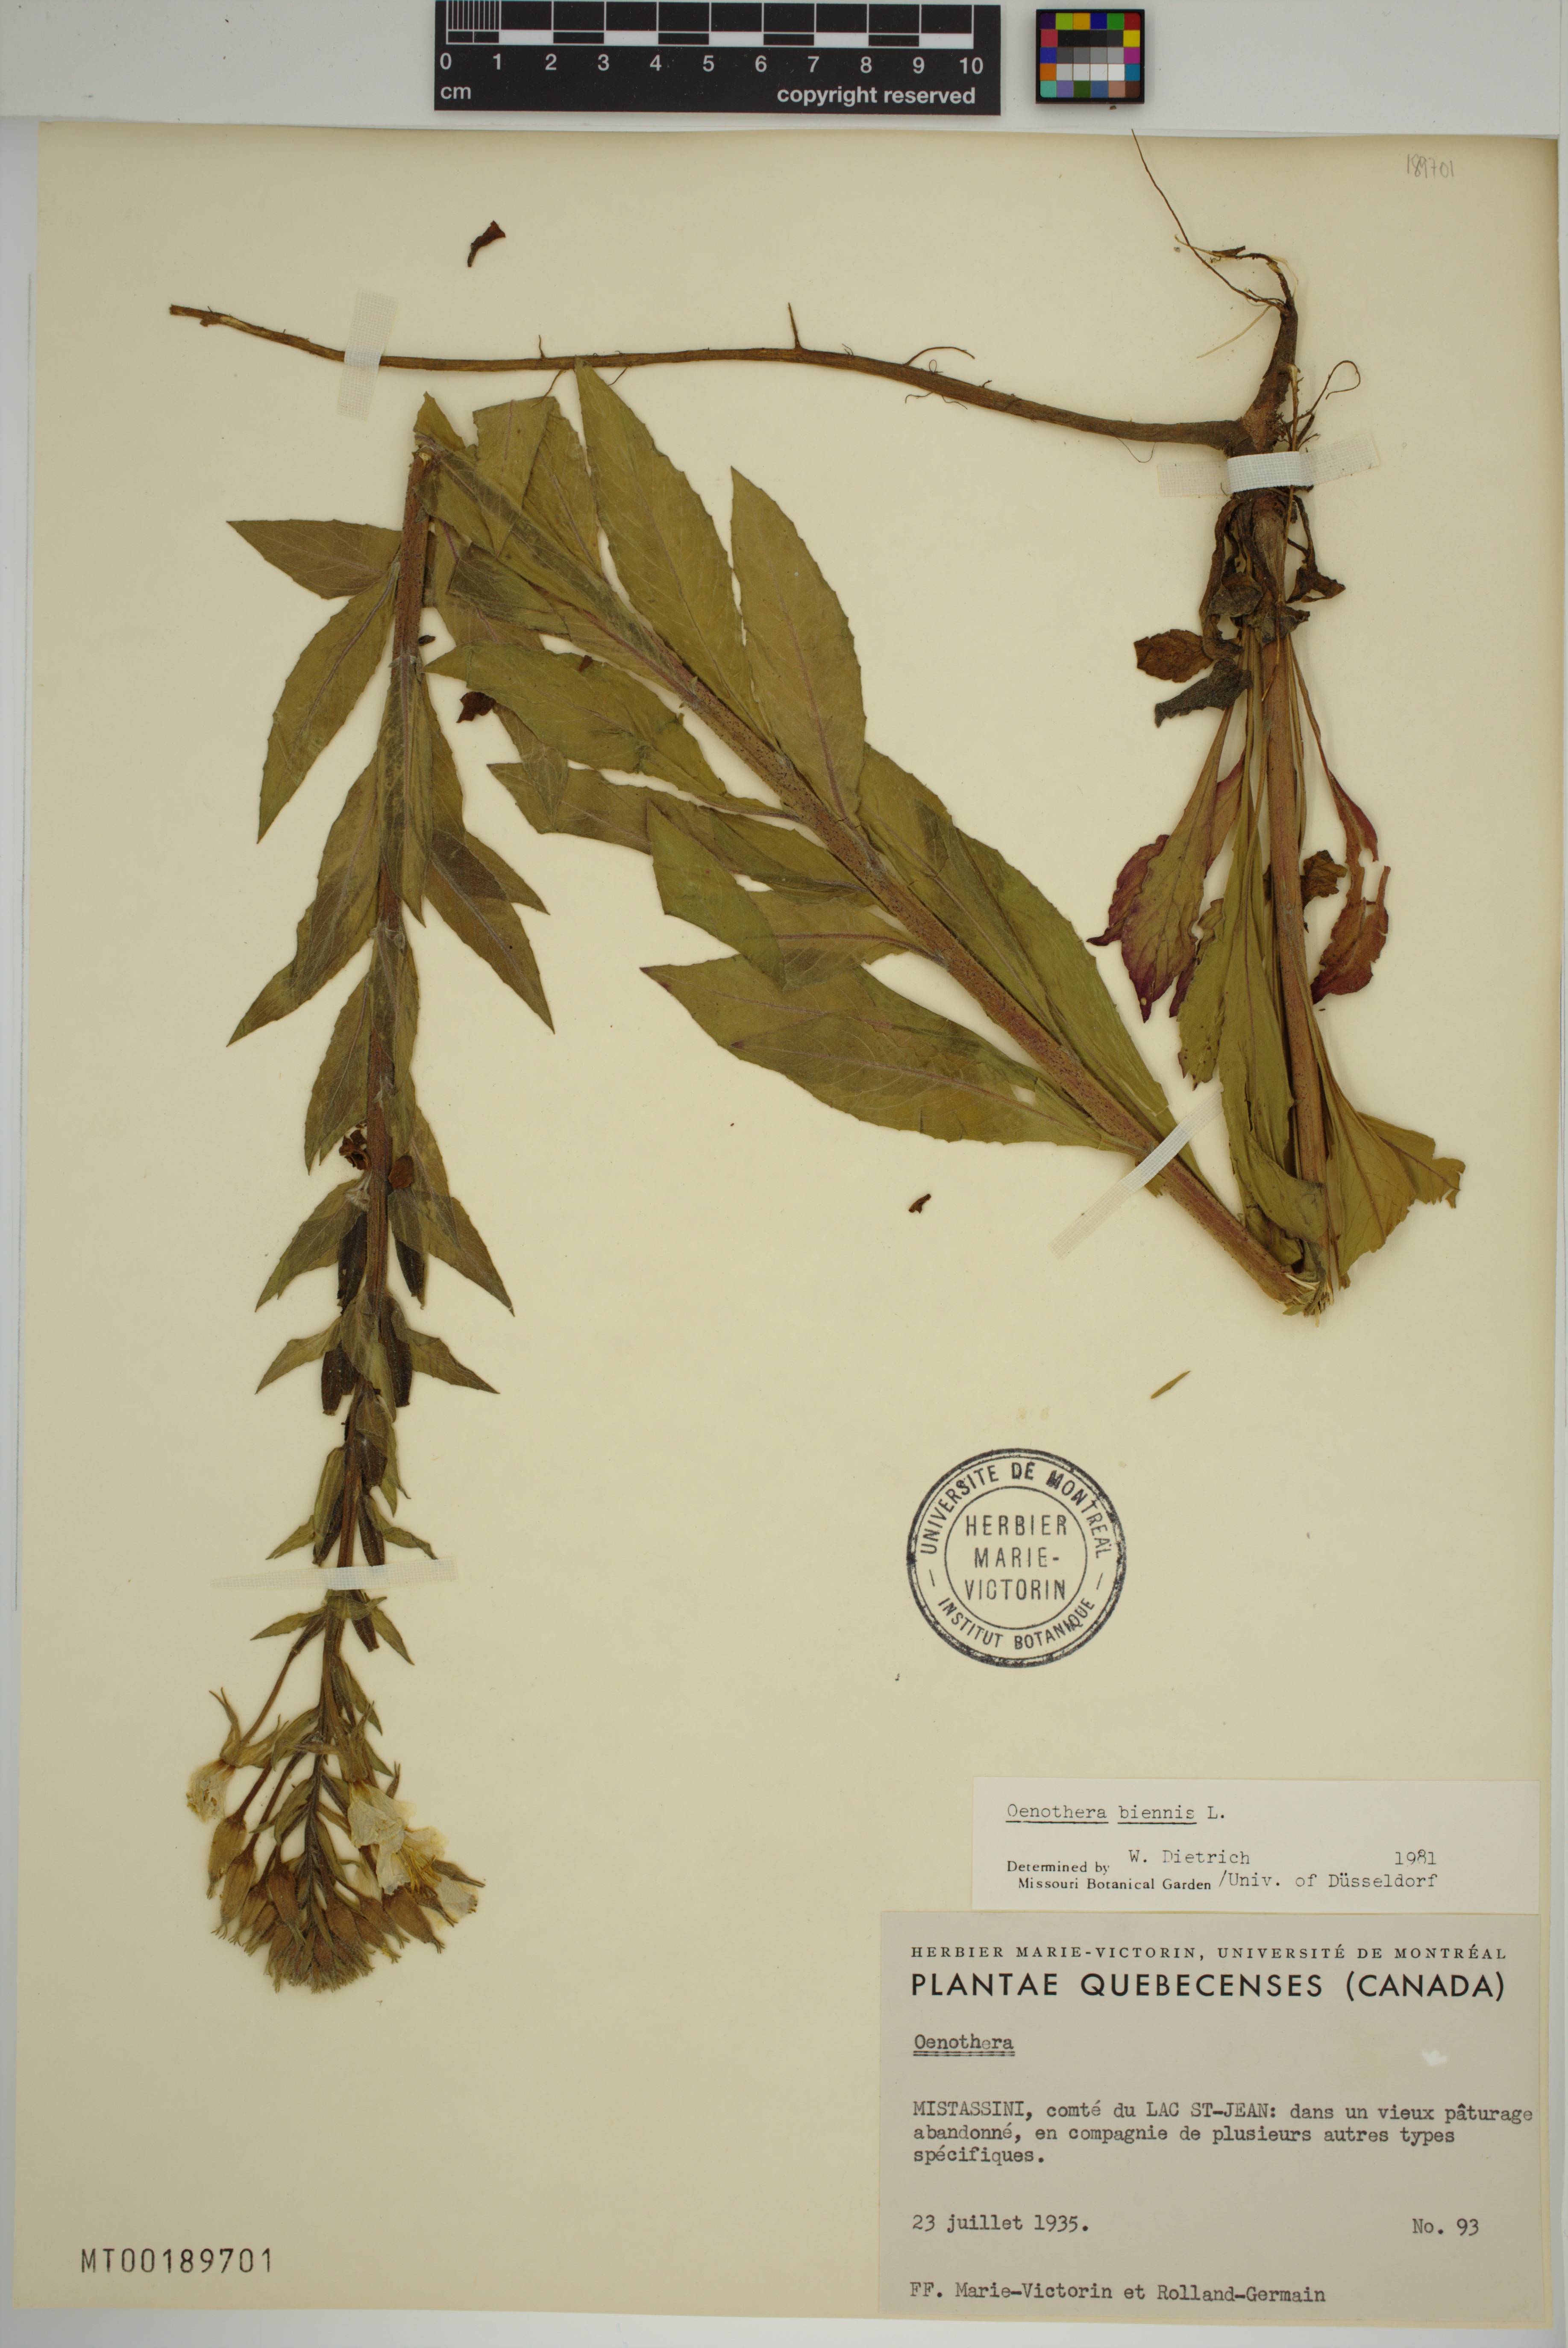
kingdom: Plantae
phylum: Tracheophyta
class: Magnoliopsida
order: Myrtales
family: Onagraceae
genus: Oenothera
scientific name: Oenothera biennis
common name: Common evening-primrose
